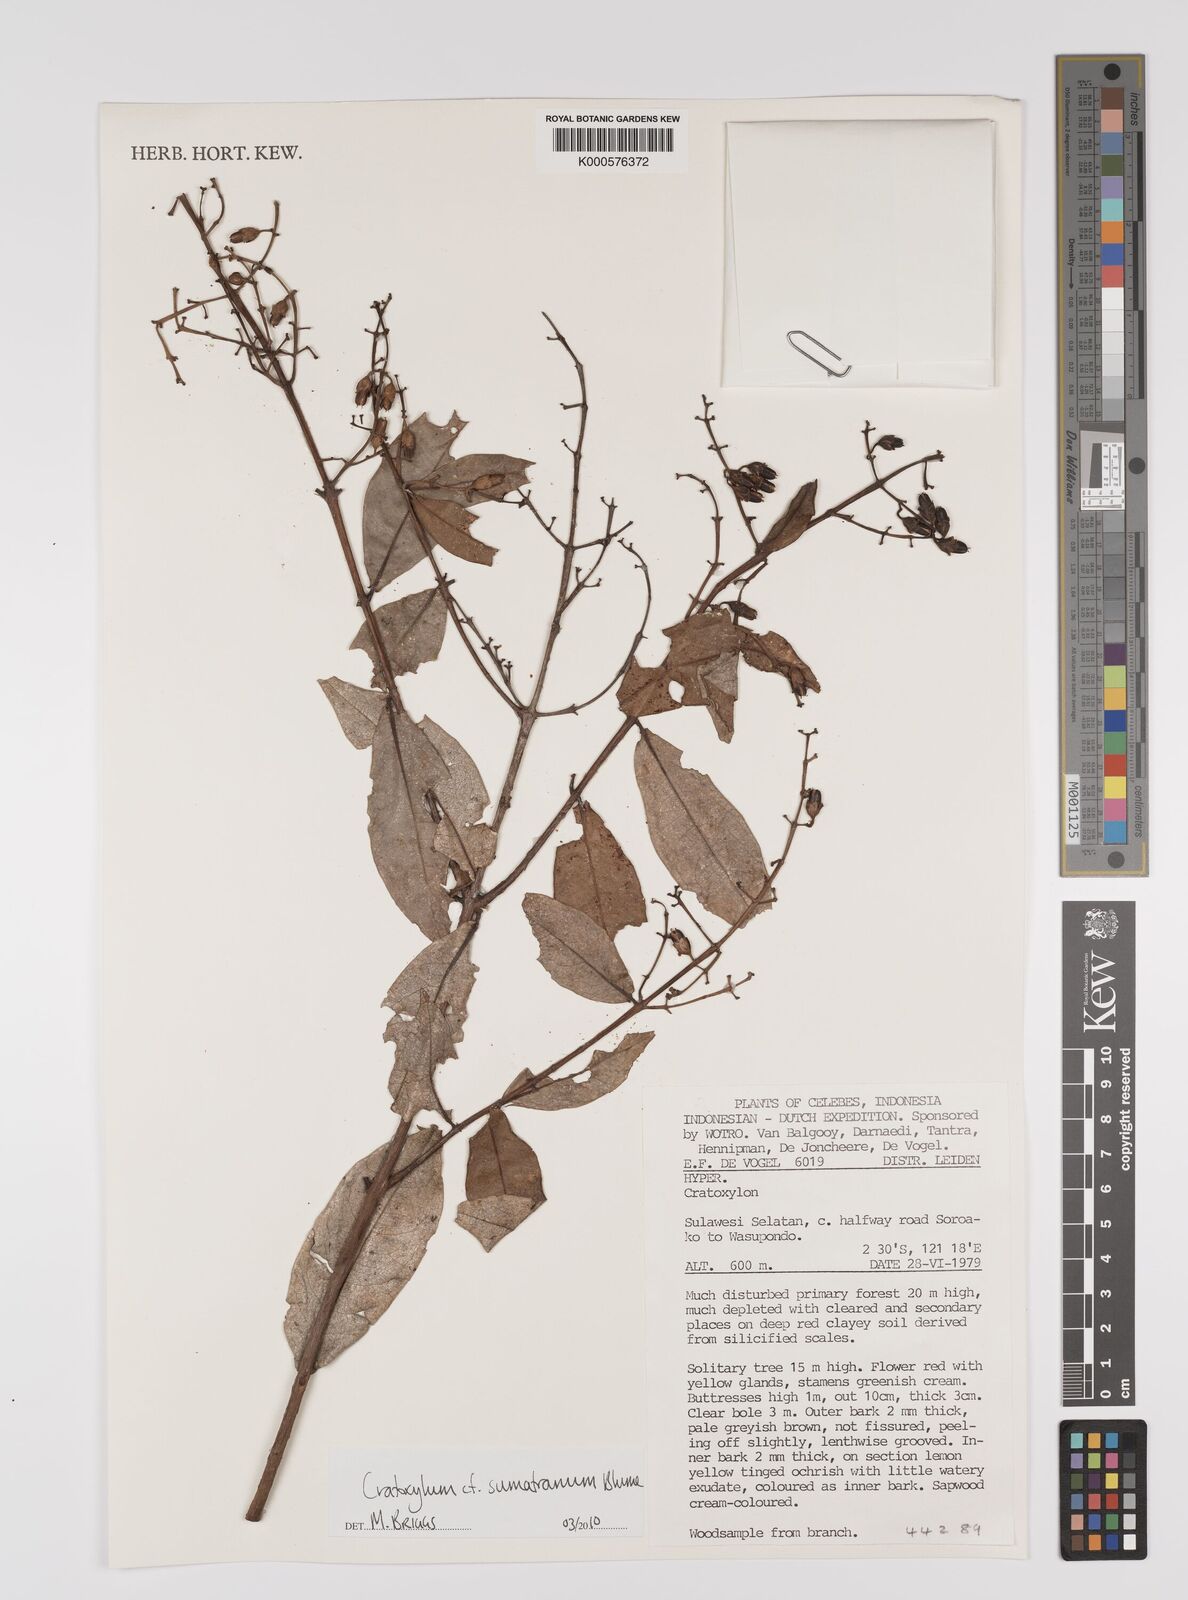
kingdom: Plantae
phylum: Tracheophyta
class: Magnoliopsida
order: Malpighiales
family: Hypericaceae
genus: Cratoxylum
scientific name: Cratoxylum sumatranum
